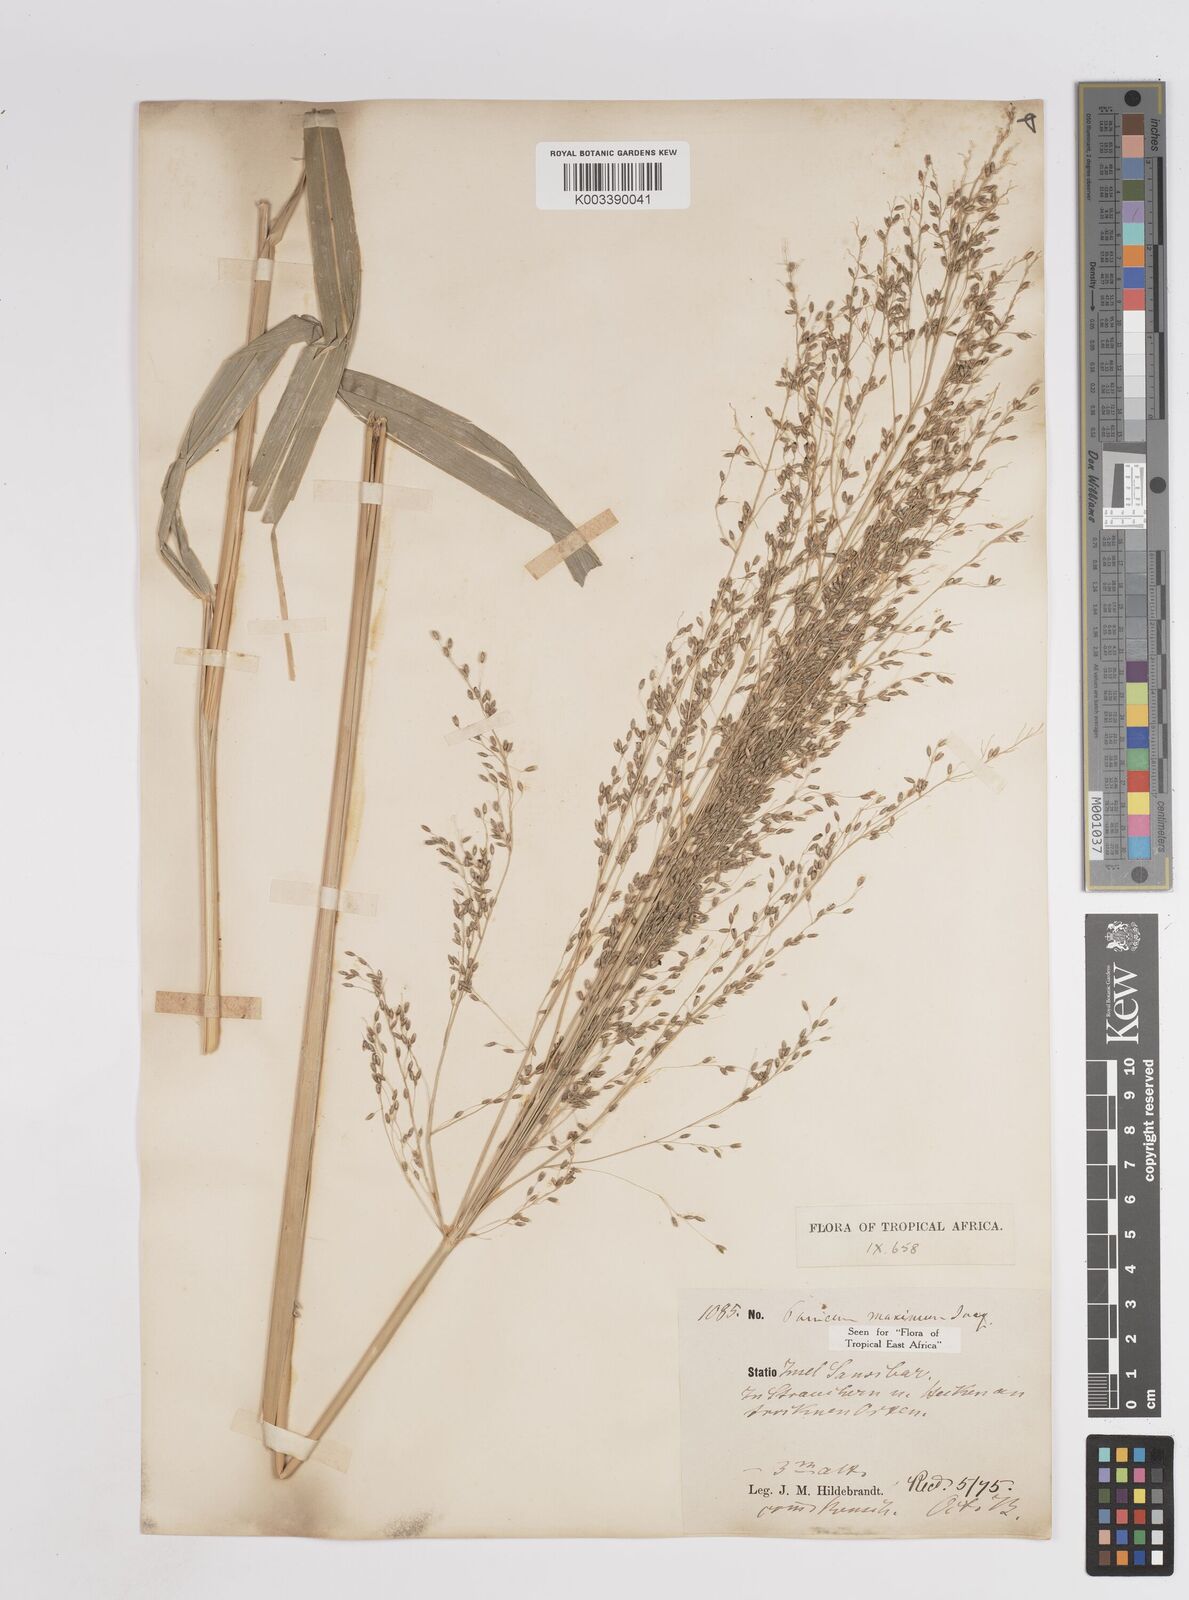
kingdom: Plantae
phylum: Tracheophyta
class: Liliopsida
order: Poales
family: Poaceae
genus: Megathyrsus
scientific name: Megathyrsus maximus
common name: Guineagrass
